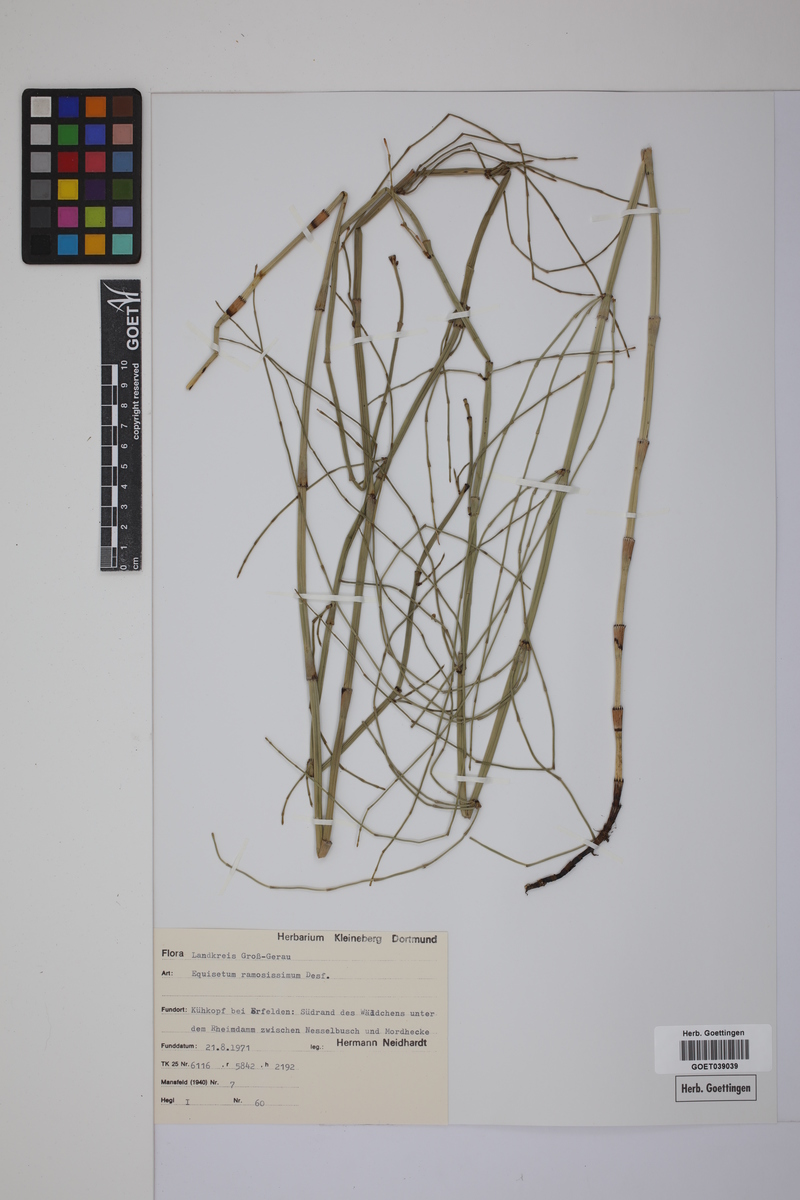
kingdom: Plantae
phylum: Tracheophyta
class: Polypodiopsida
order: Equisetales
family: Equisetaceae
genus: Equisetum
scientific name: Equisetum giganteum
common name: Giant horsetail
